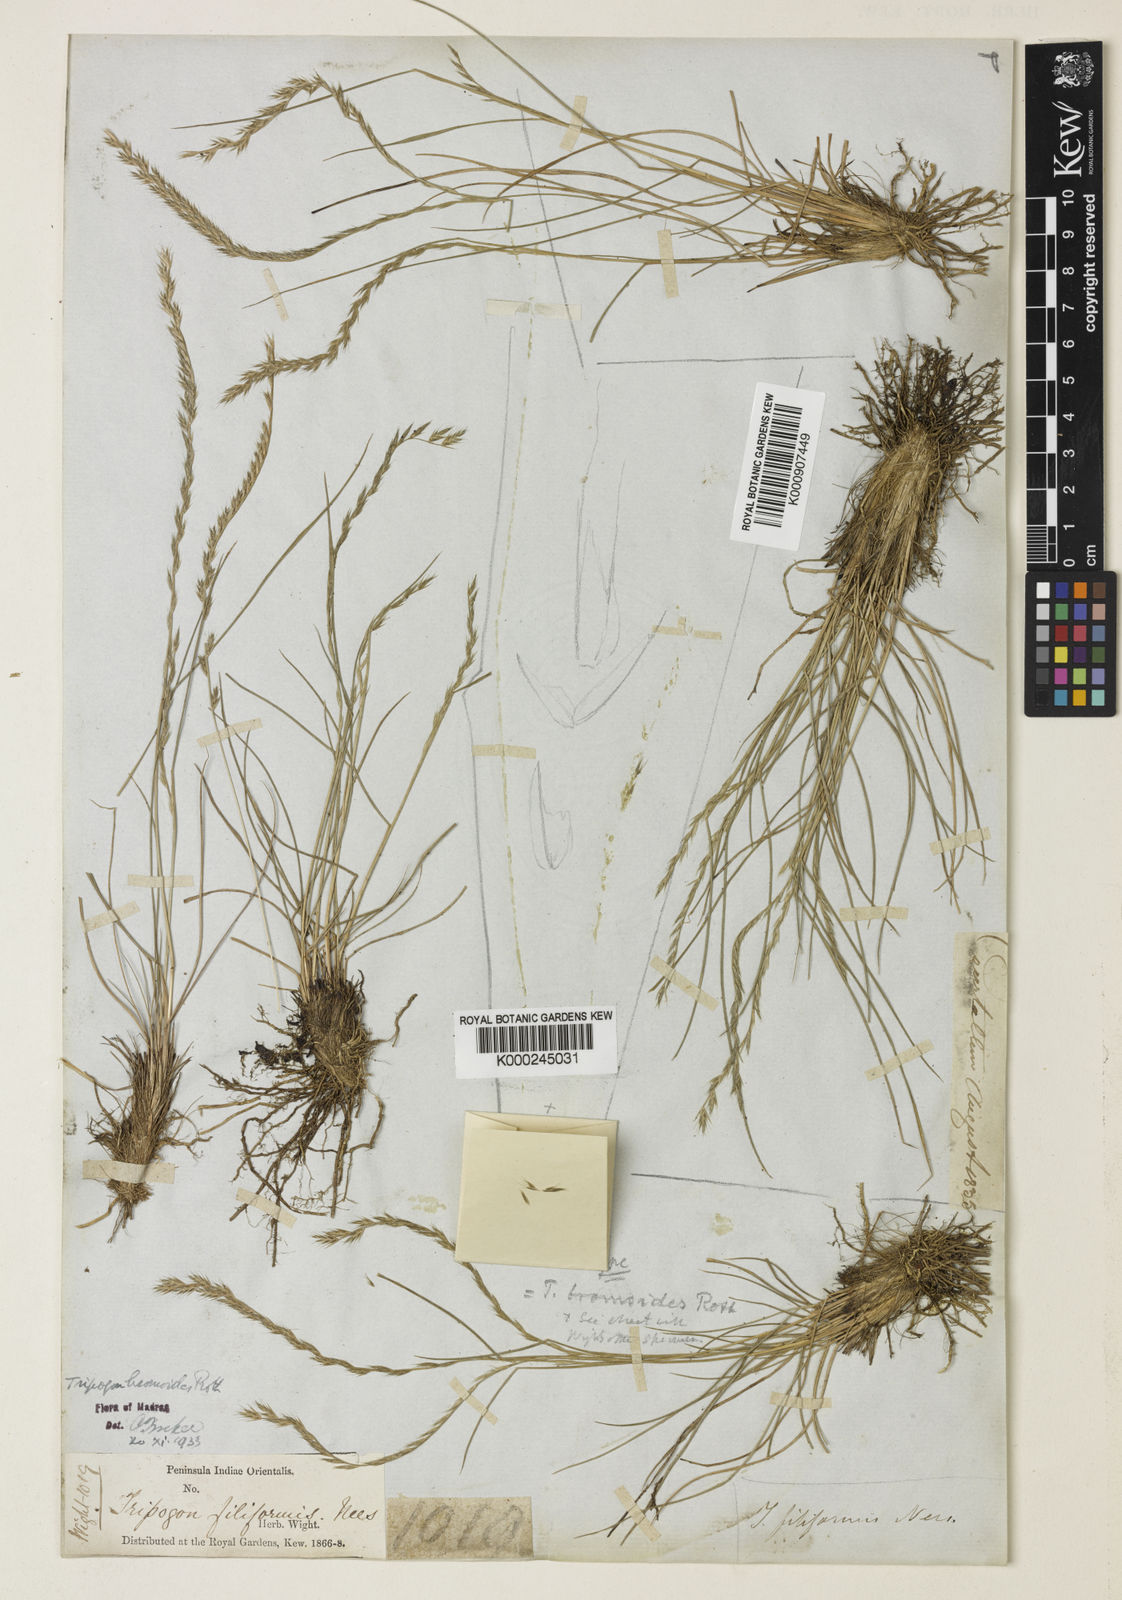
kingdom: Plantae
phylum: Tracheophyta
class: Liliopsida
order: Poales
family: Poaceae
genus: Tripogon
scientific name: Tripogon filiformis
